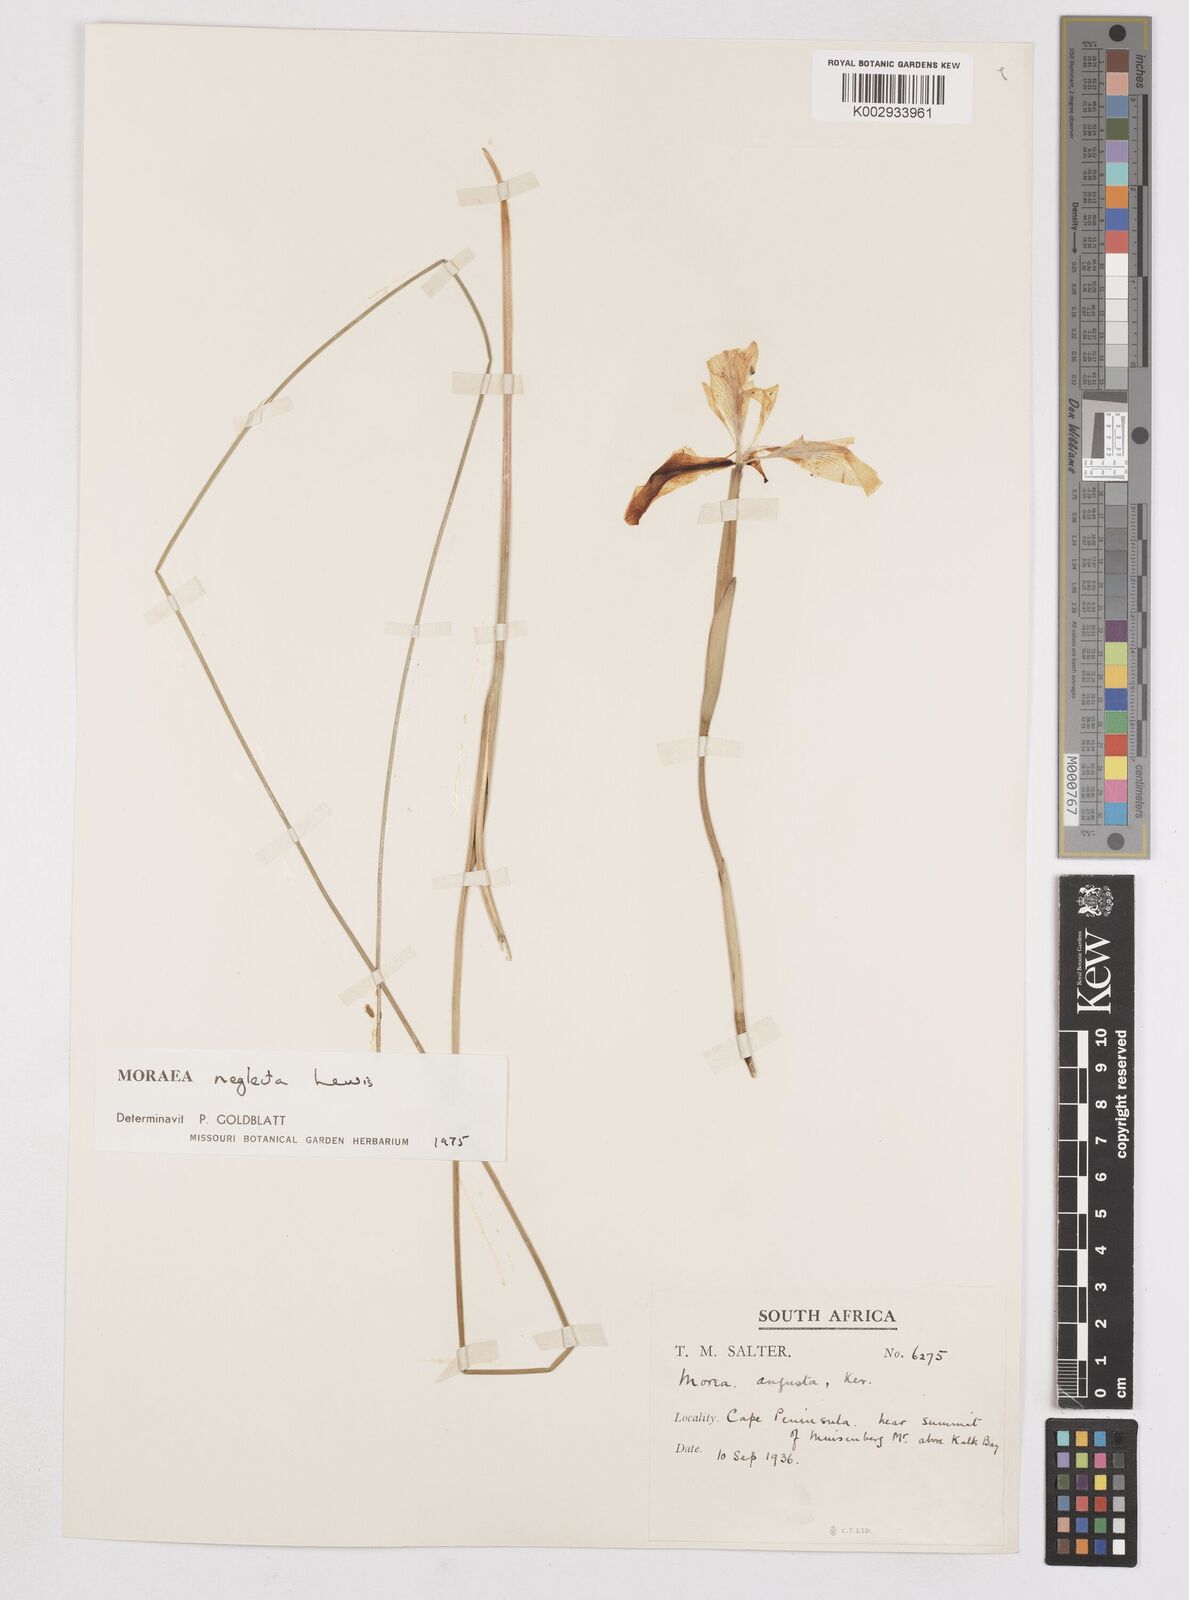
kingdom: Plantae
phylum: Tracheophyta
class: Liliopsida
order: Asparagales
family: Iridaceae
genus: Moraea
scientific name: Moraea neglecta
